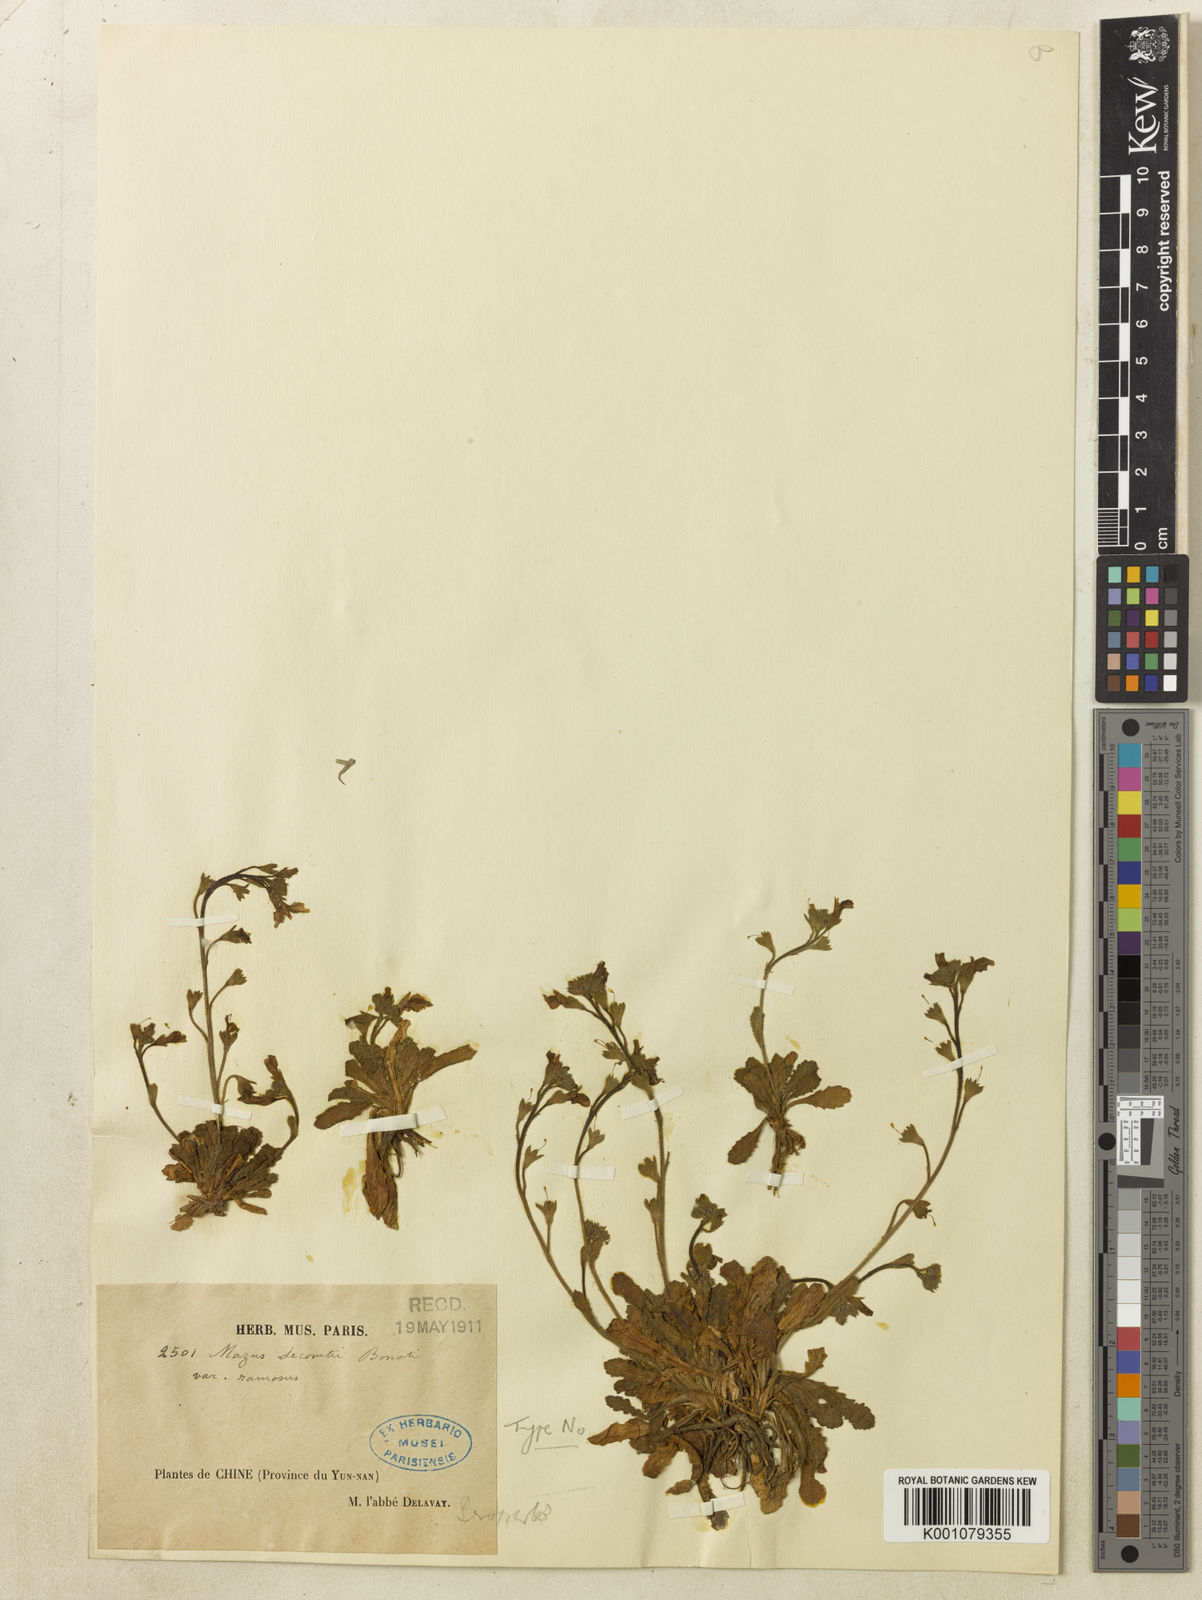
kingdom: Plantae
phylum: Tracheophyta
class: Magnoliopsida
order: Lamiales
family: Mazaceae
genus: Mazus
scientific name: Mazus lecomtei
